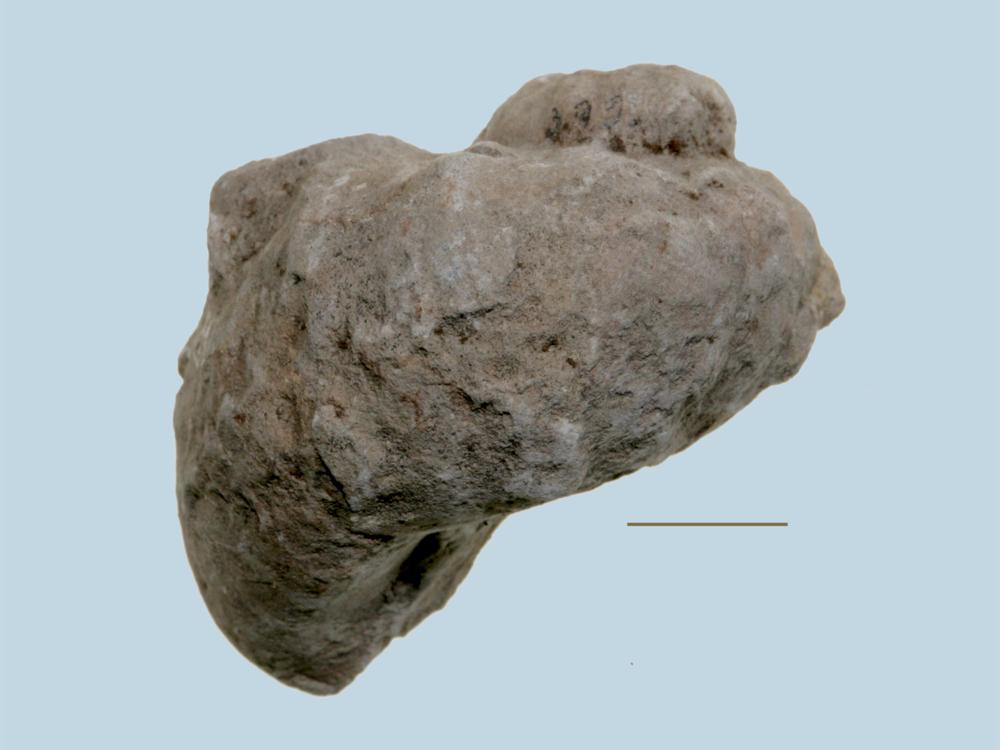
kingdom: Animalia
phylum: Mollusca
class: Gastropoda
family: Holopeidae
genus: Holopea
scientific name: Holopea ampullacea
